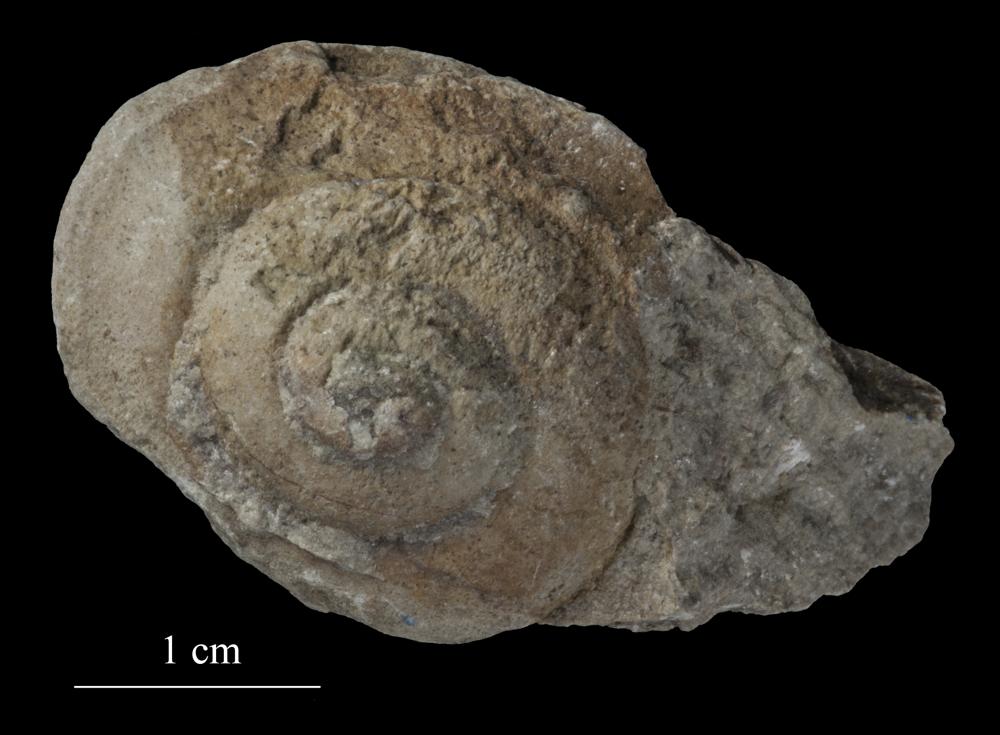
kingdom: Animalia
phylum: Mollusca
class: Gastropoda
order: Pleurotomariida
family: Pleurotomariidae
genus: Pleurotomaria
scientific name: Pleurotomaria
